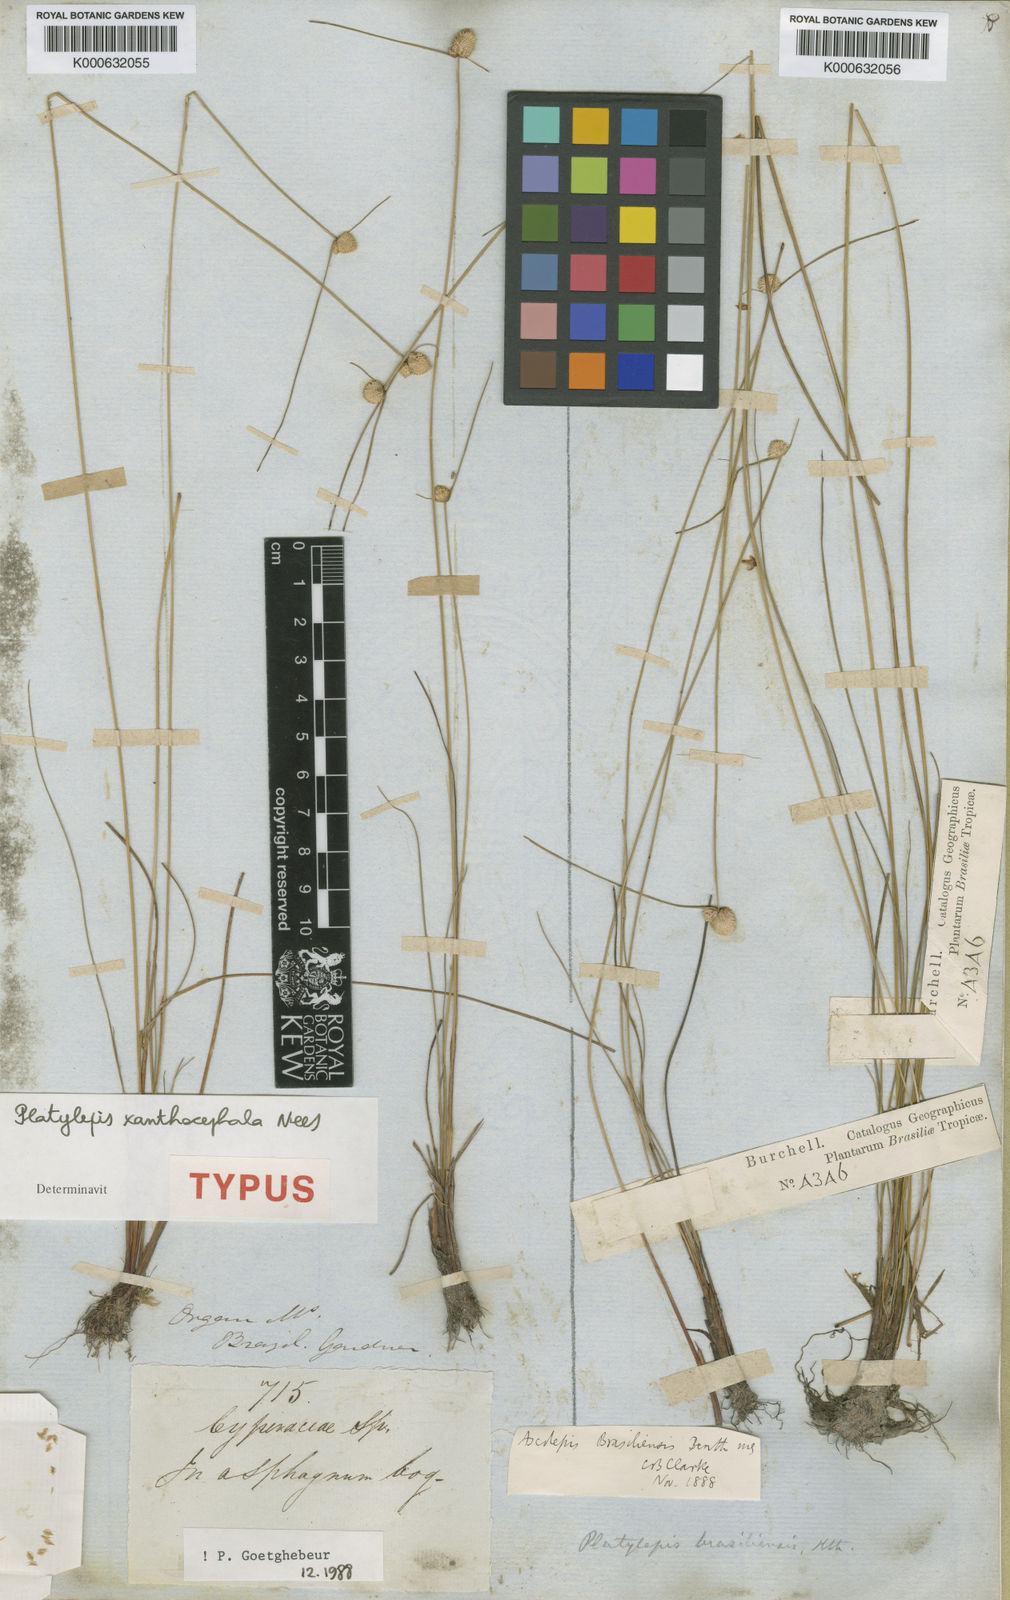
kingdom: Plantae
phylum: Tracheophyta
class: Liliopsida
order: Poales
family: Cyperaceae
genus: Cyperus
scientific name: Cyperus brasiliensis
